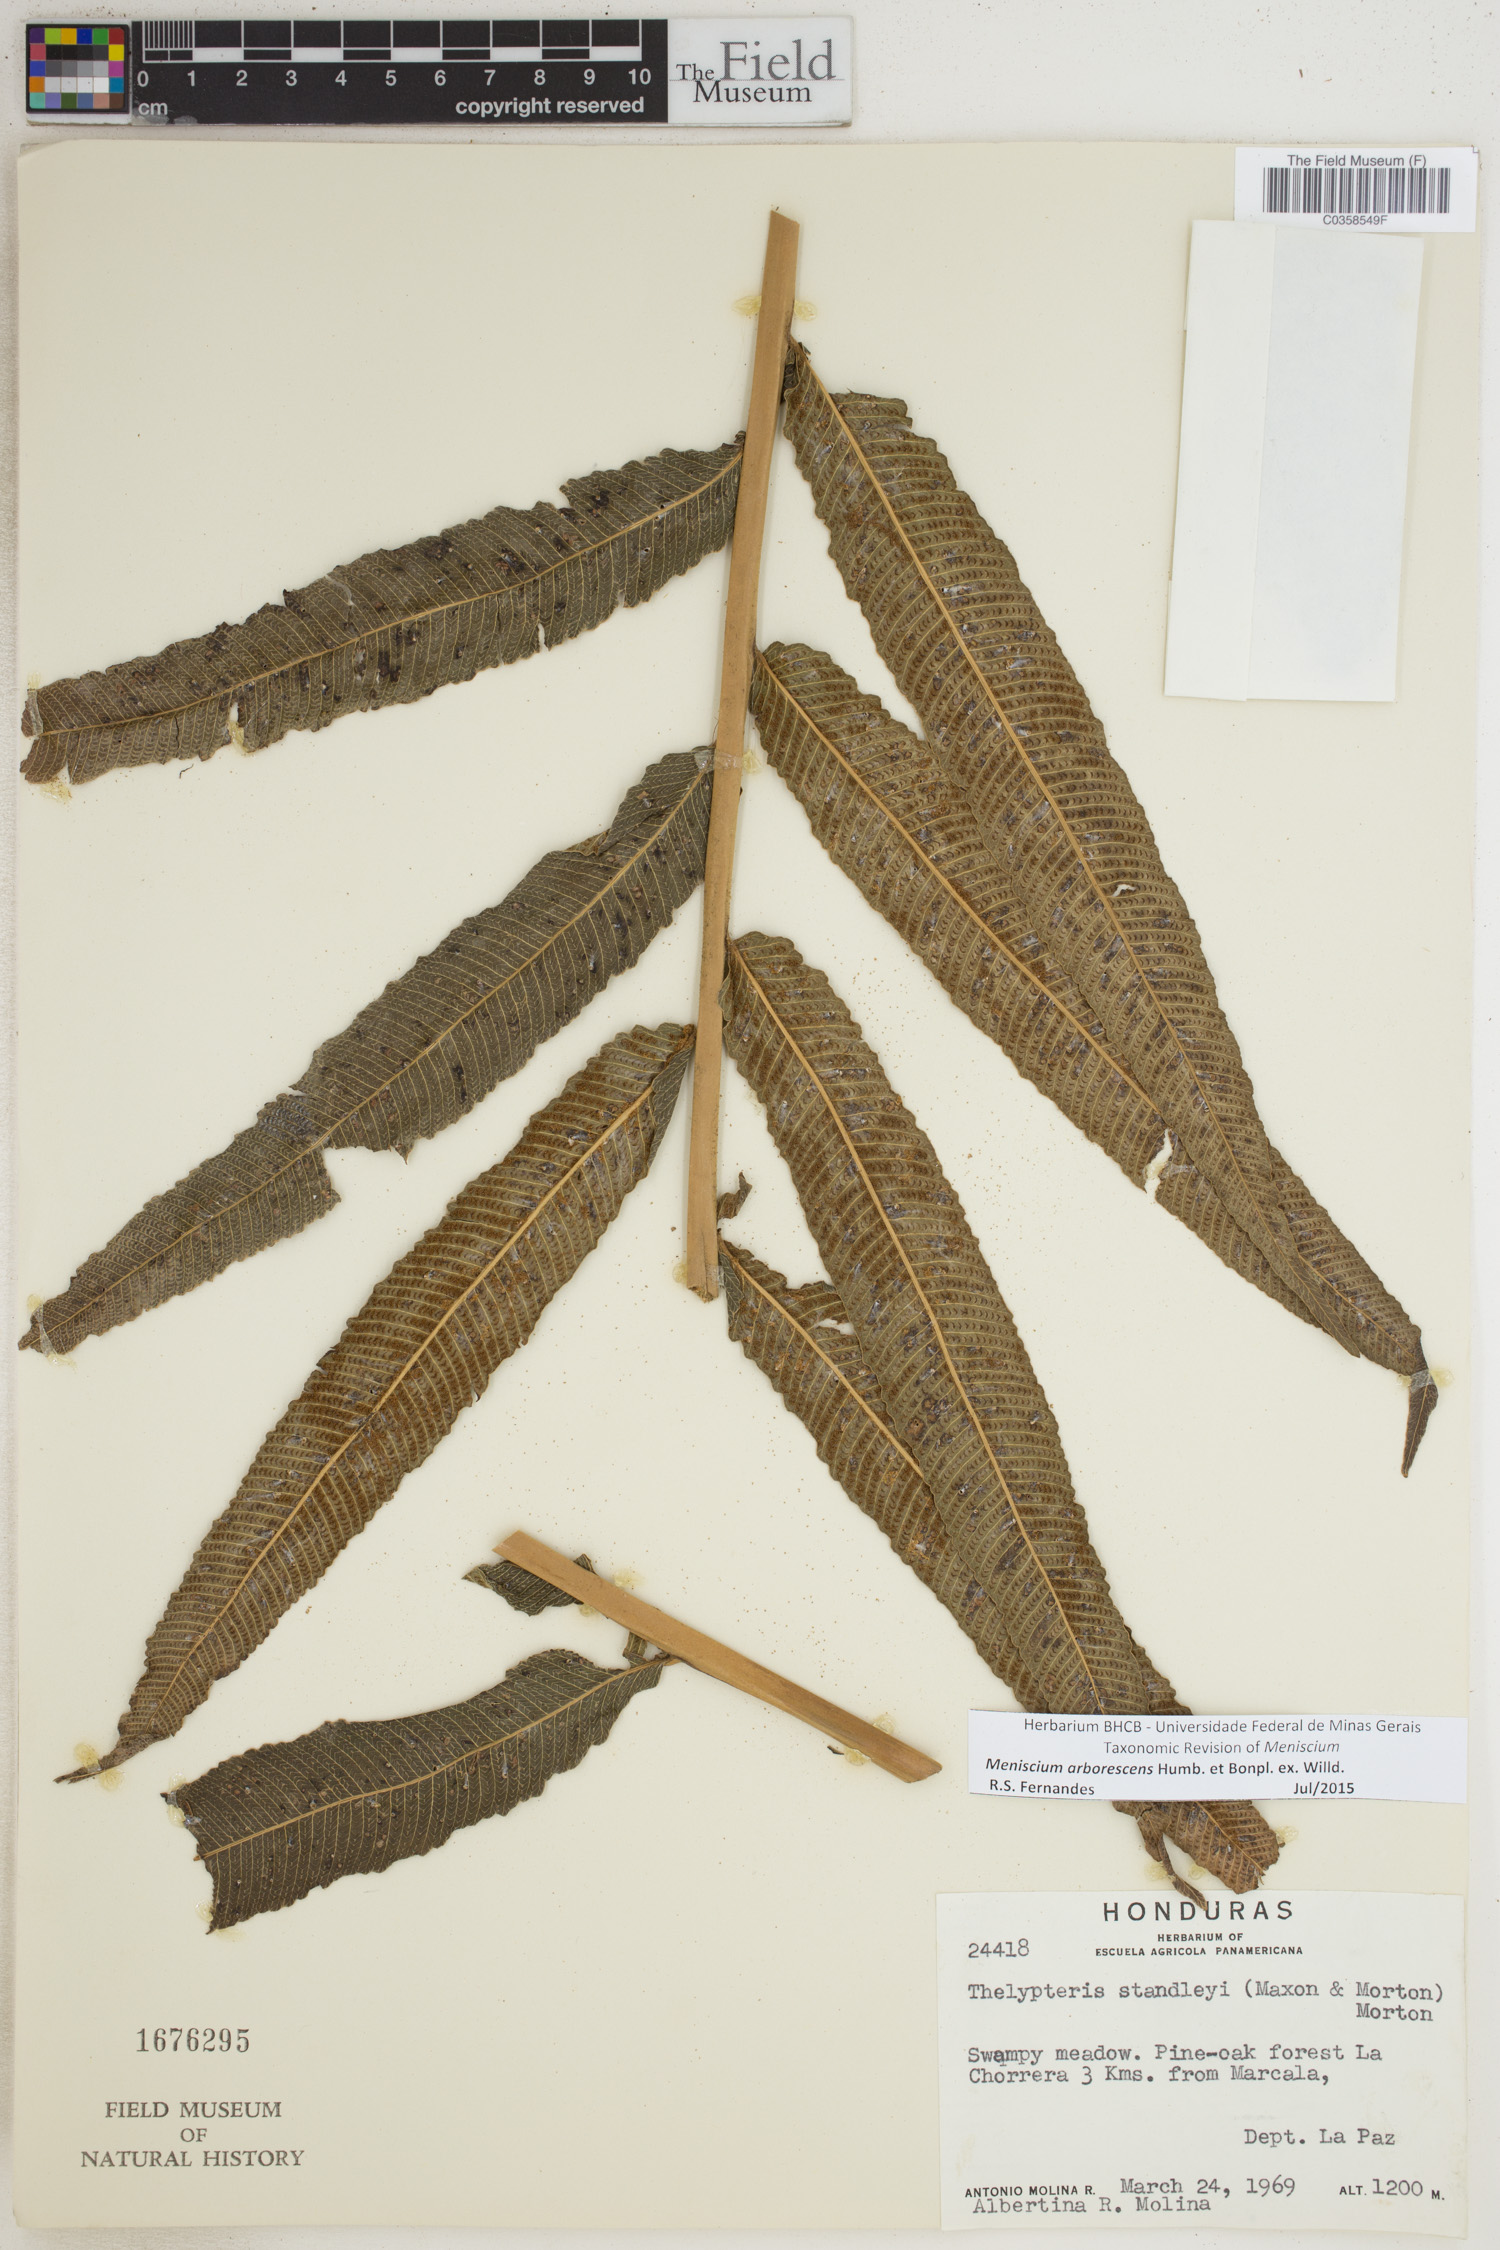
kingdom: Plantae
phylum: Tracheophyta
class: Polypodiopsida
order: Polypodiales
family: Thelypteridaceae
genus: Meniscium
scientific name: Meniscium arborescens
